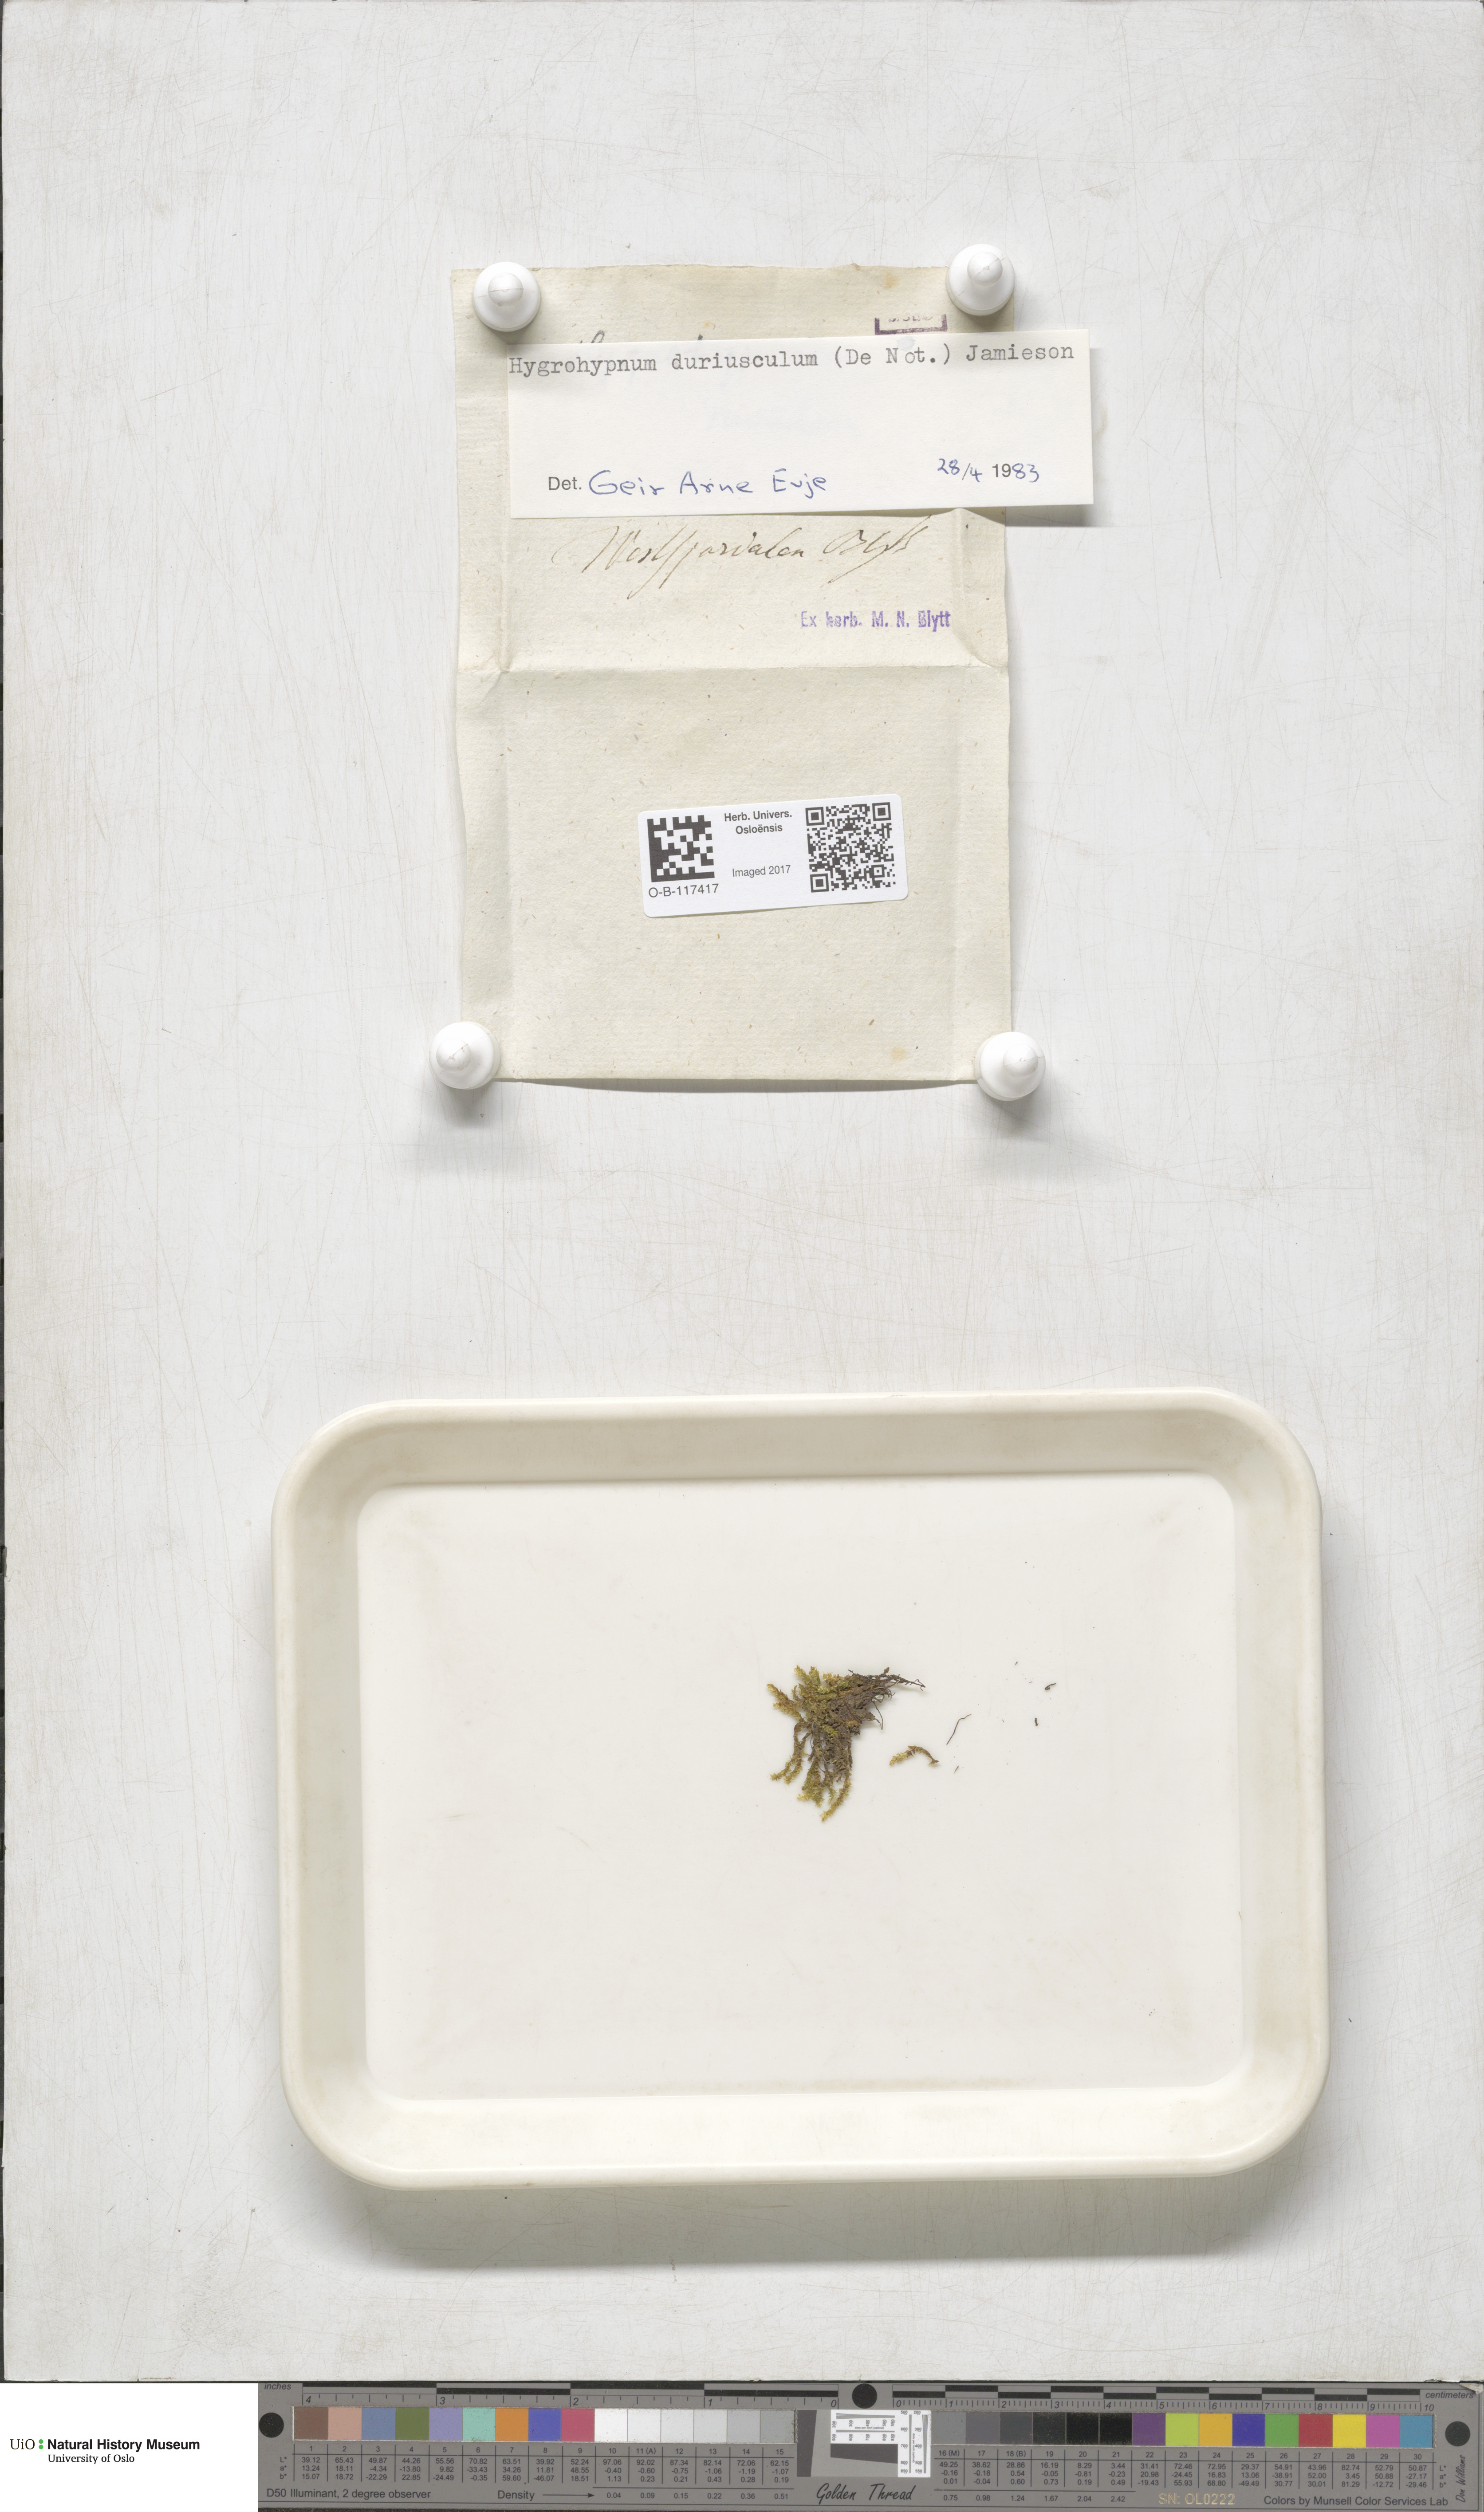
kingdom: Plantae
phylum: Bryophyta
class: Bryopsida
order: Hypnales
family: Amblystegiaceae
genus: Platyhypnum
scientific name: Platyhypnum duriusculum
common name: Broad-leaved brook-moss
